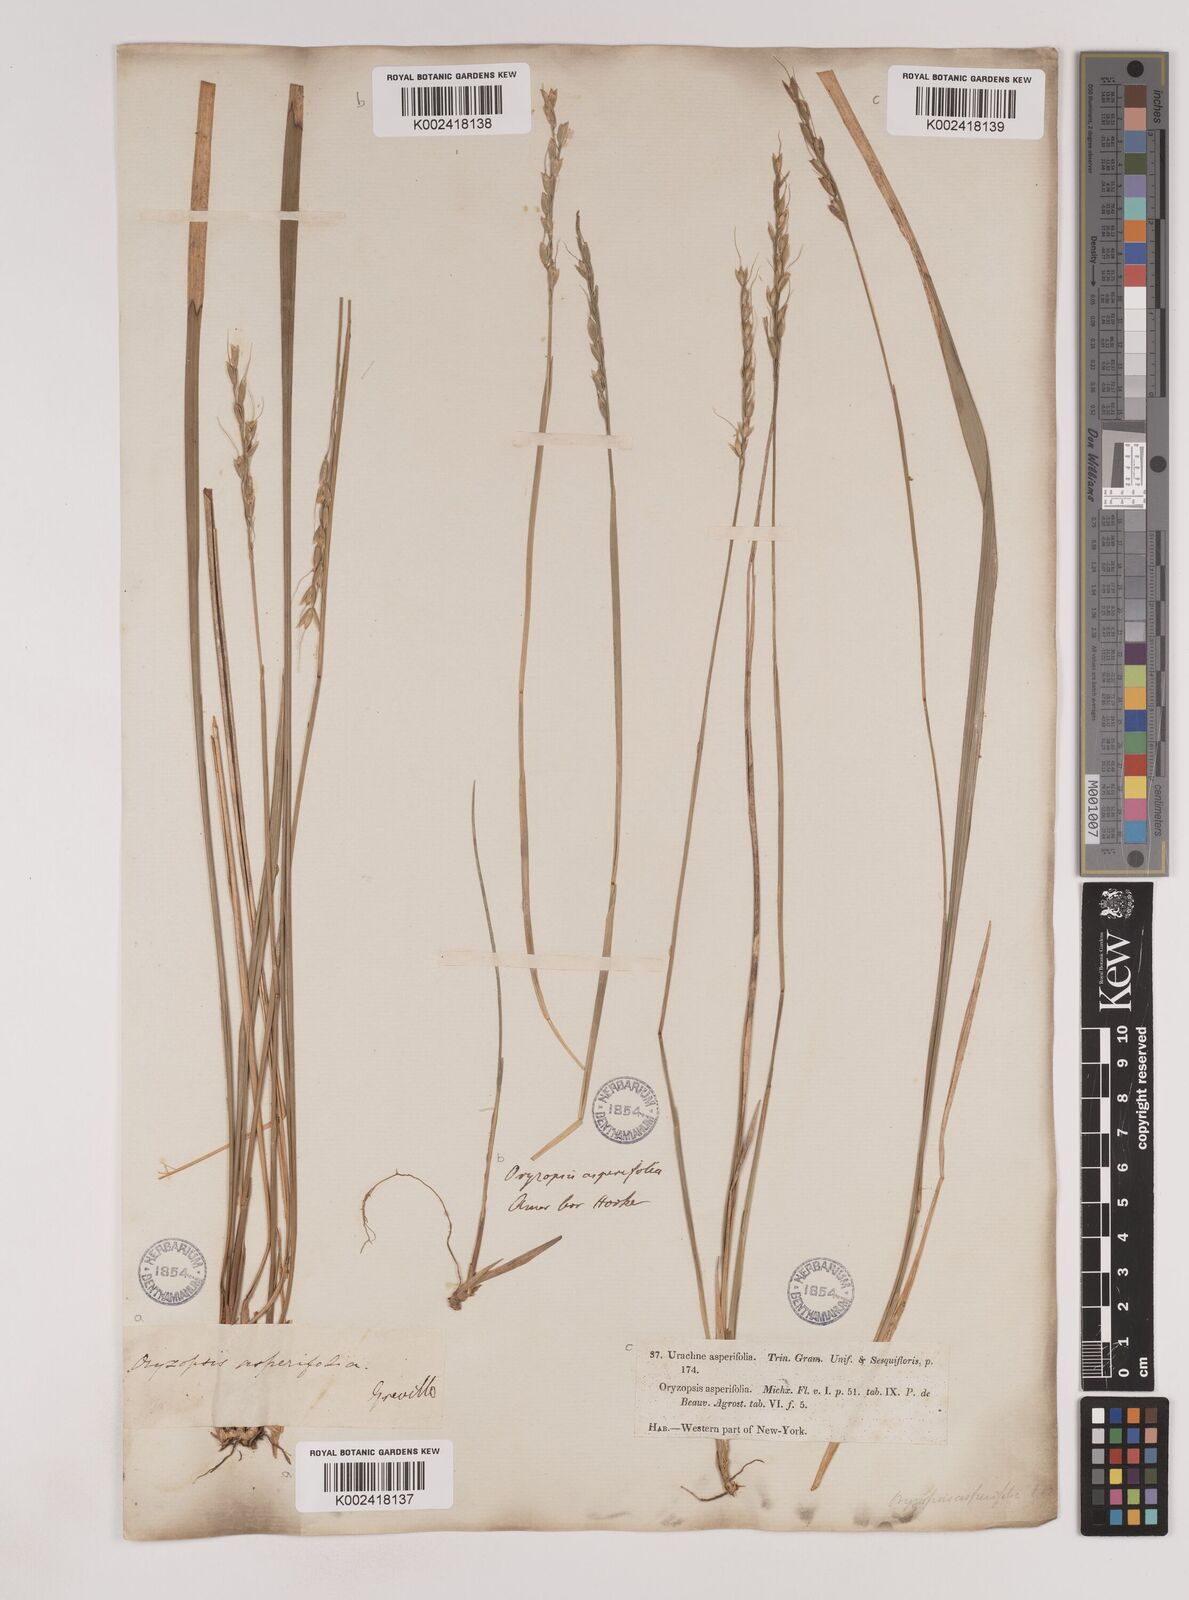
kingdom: Plantae
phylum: Tracheophyta
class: Liliopsida
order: Poales
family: Poaceae
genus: Oryzopsis
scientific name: Oryzopsis asperifolia
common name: Rough-leaved mountain rice
